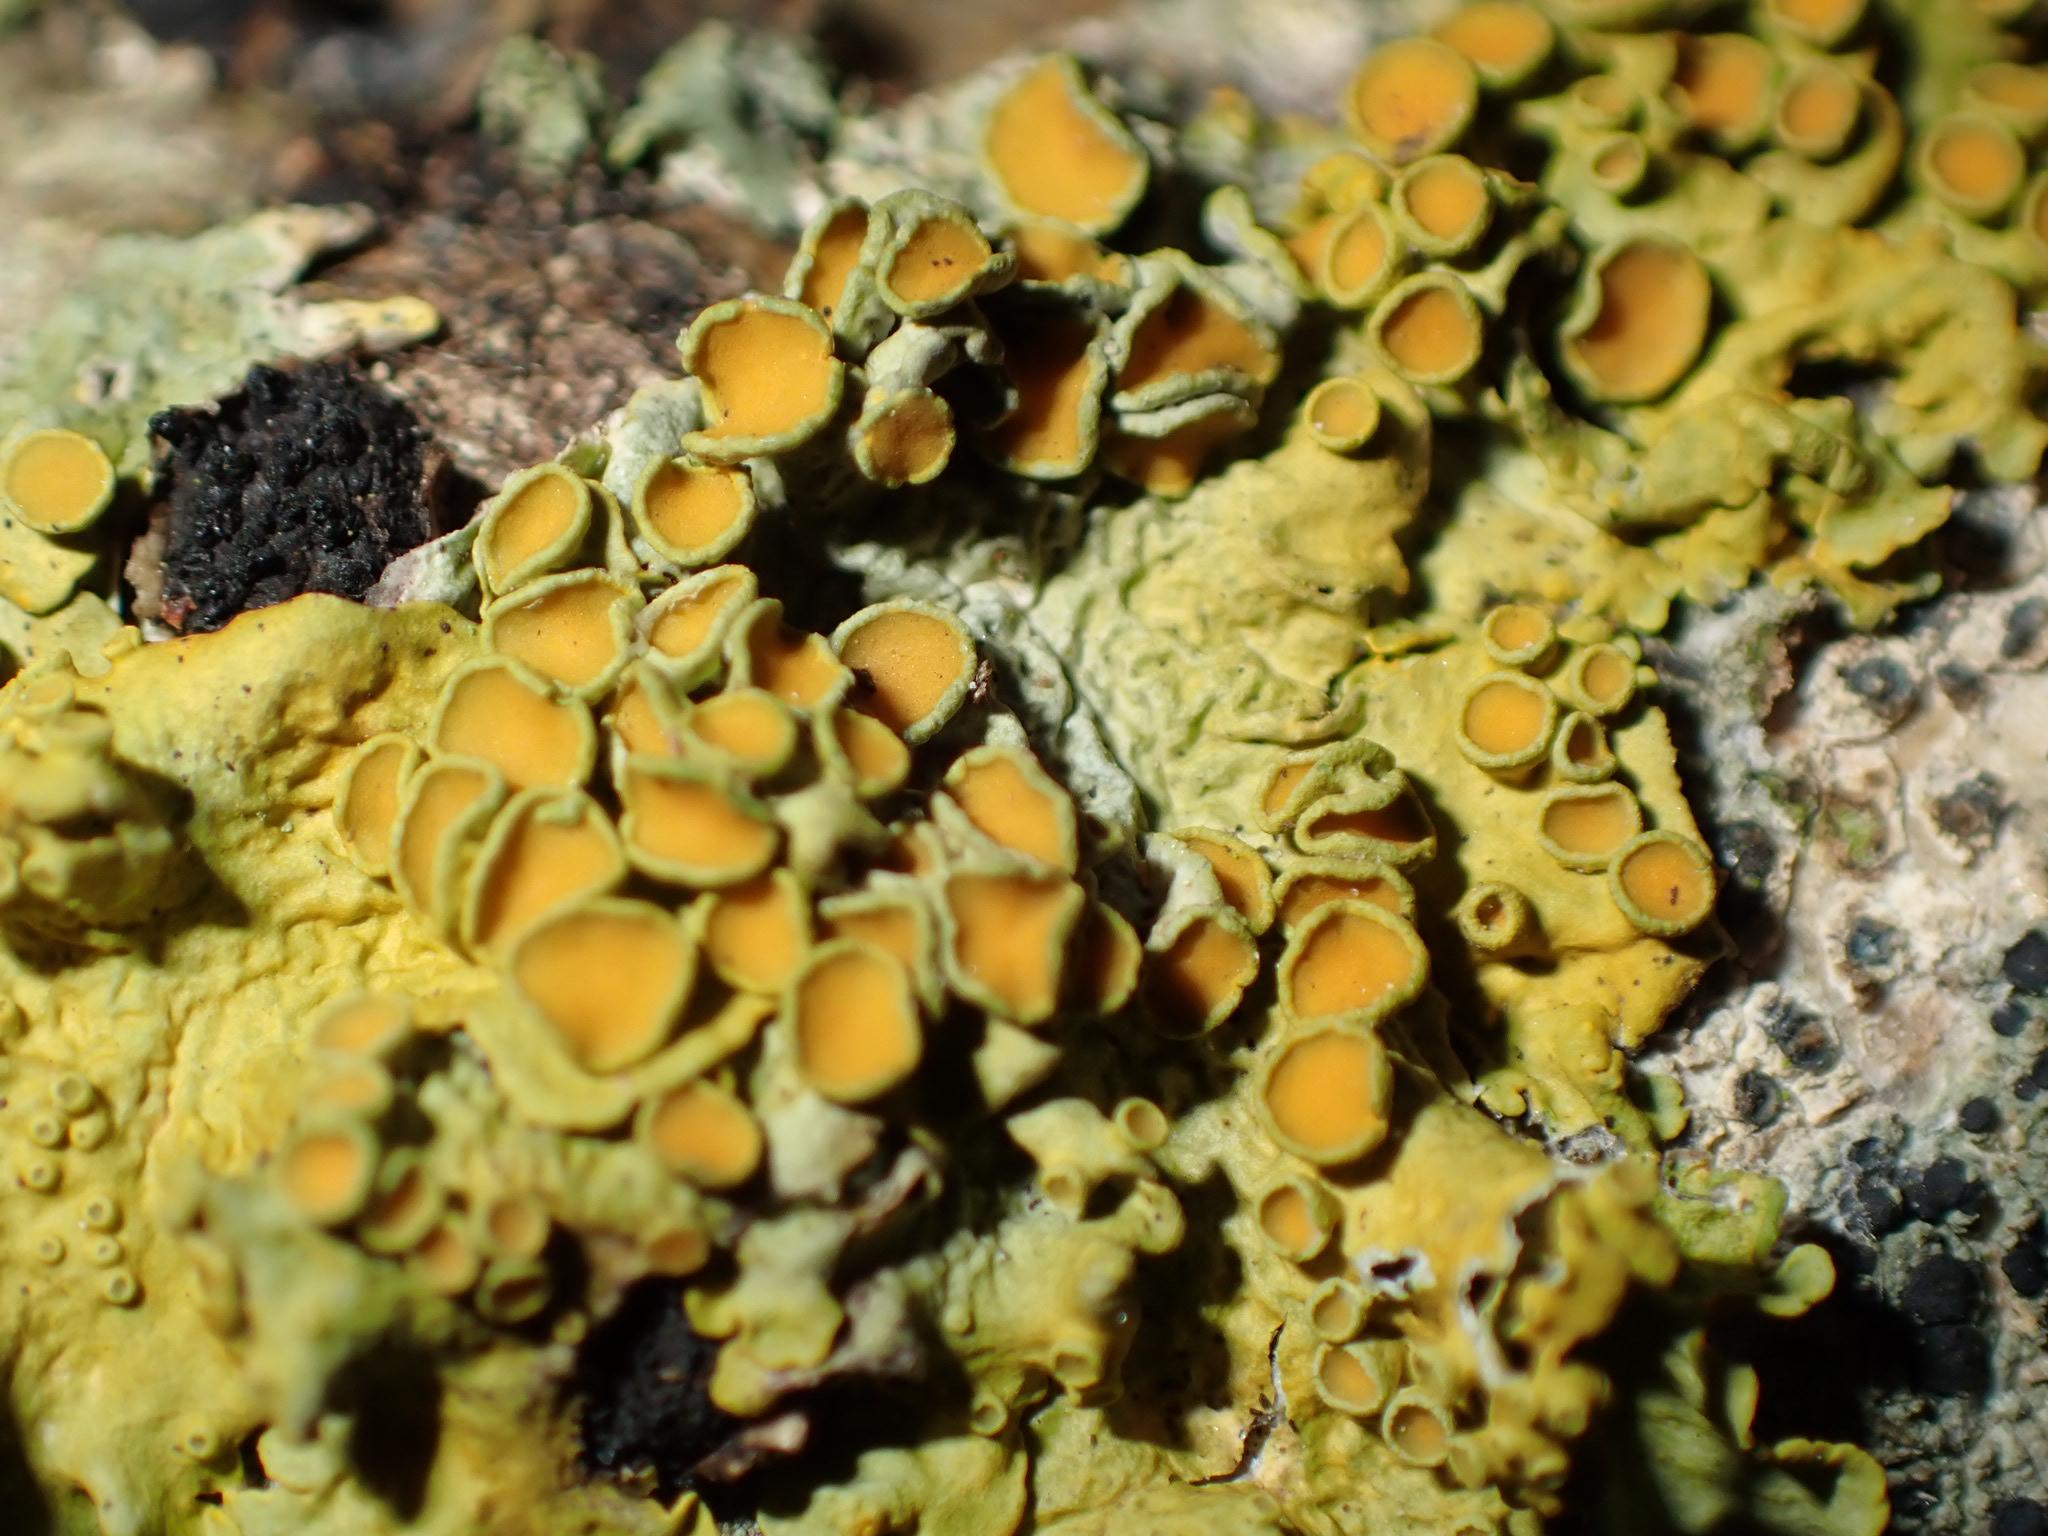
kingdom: Fungi
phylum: Ascomycota
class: Lecanoromycetes
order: Teloschistales
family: Teloschistaceae
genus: Xanthoria
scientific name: Xanthoria parietina
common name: Almindelig væggelav
